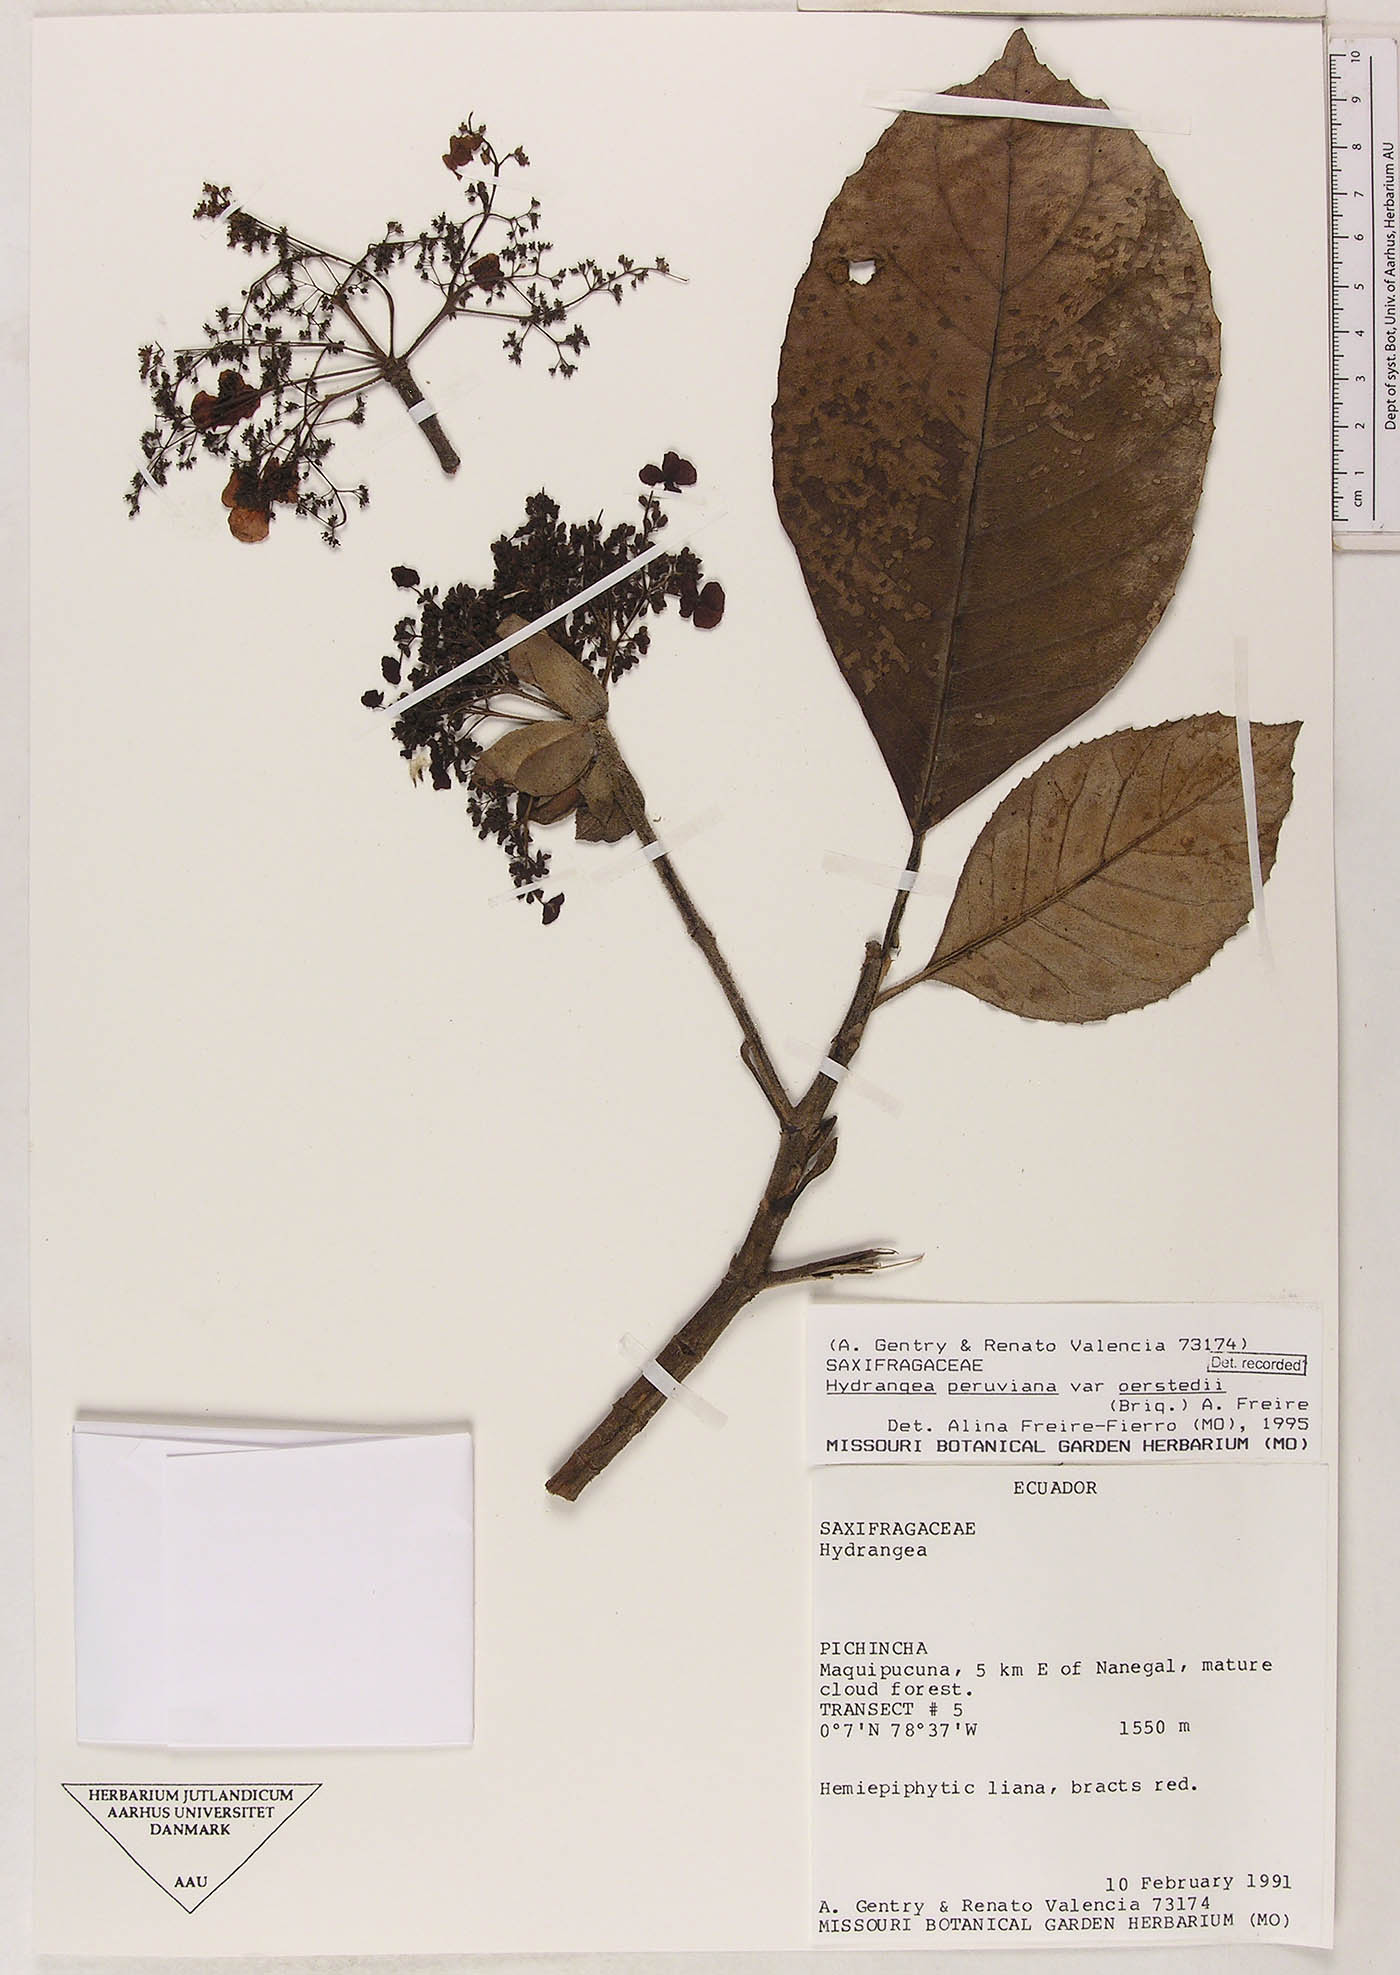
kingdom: Plantae
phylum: Tracheophyta
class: Magnoliopsida
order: Cornales
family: Hydrangeaceae
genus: Hydrangea
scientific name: Hydrangea oerstedii
